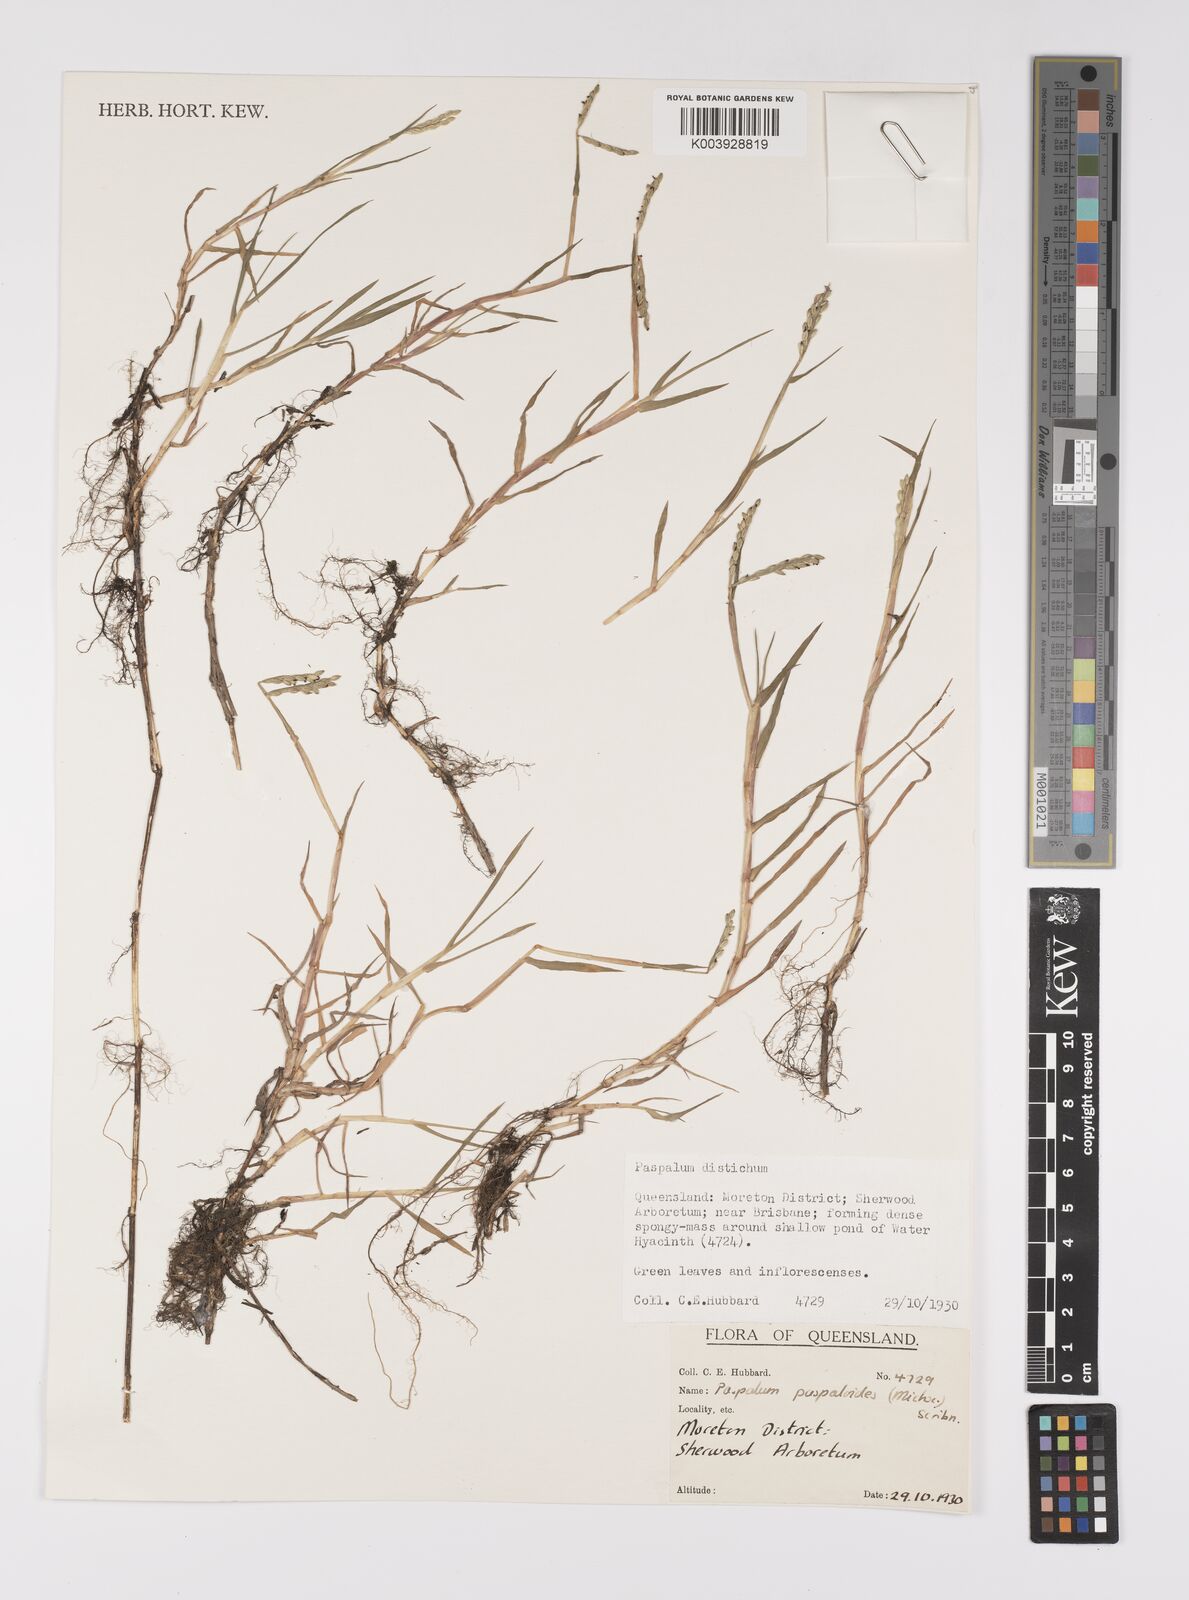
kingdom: Plantae
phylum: Tracheophyta
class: Liliopsida
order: Poales
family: Poaceae
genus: Paspalum
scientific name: Paspalum distichum
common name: Knotgrass
